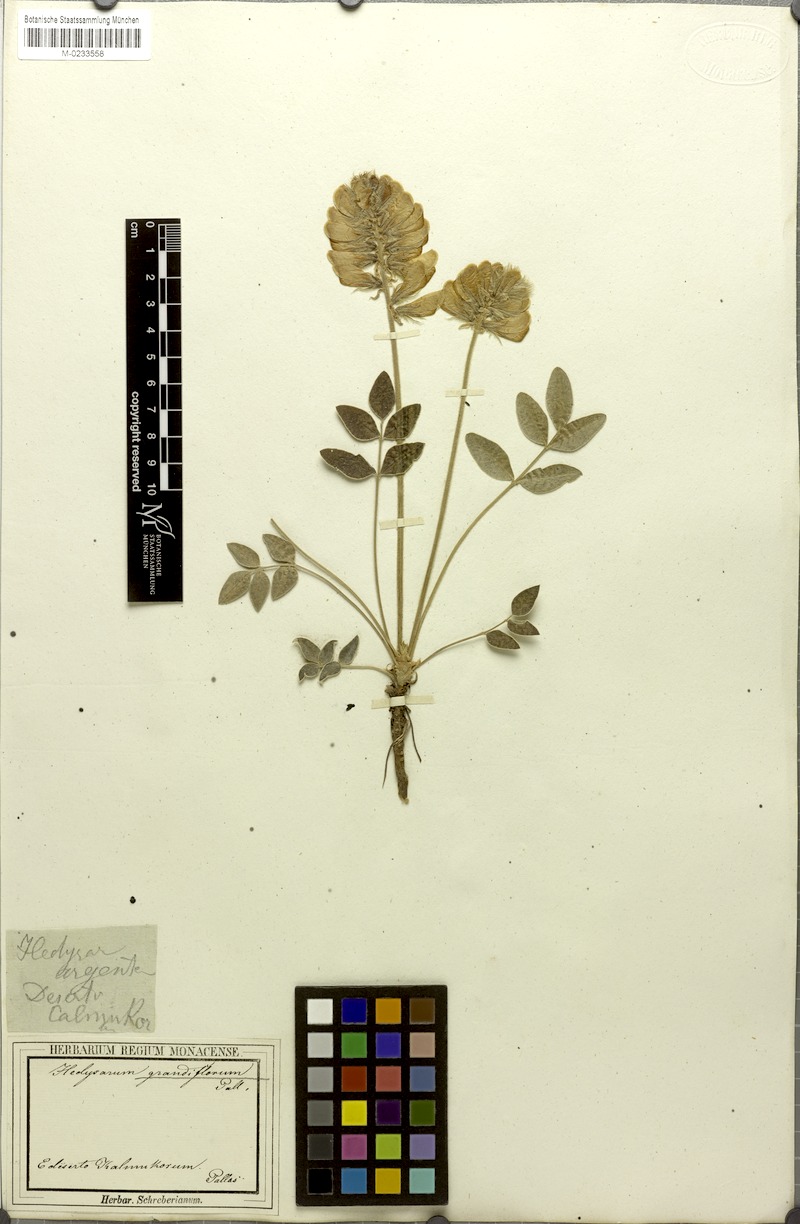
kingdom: Plantae
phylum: Tracheophyta
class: Magnoliopsida
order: Fabales
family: Fabaceae
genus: Hedysarum
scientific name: Hedysarum grandiflorum
